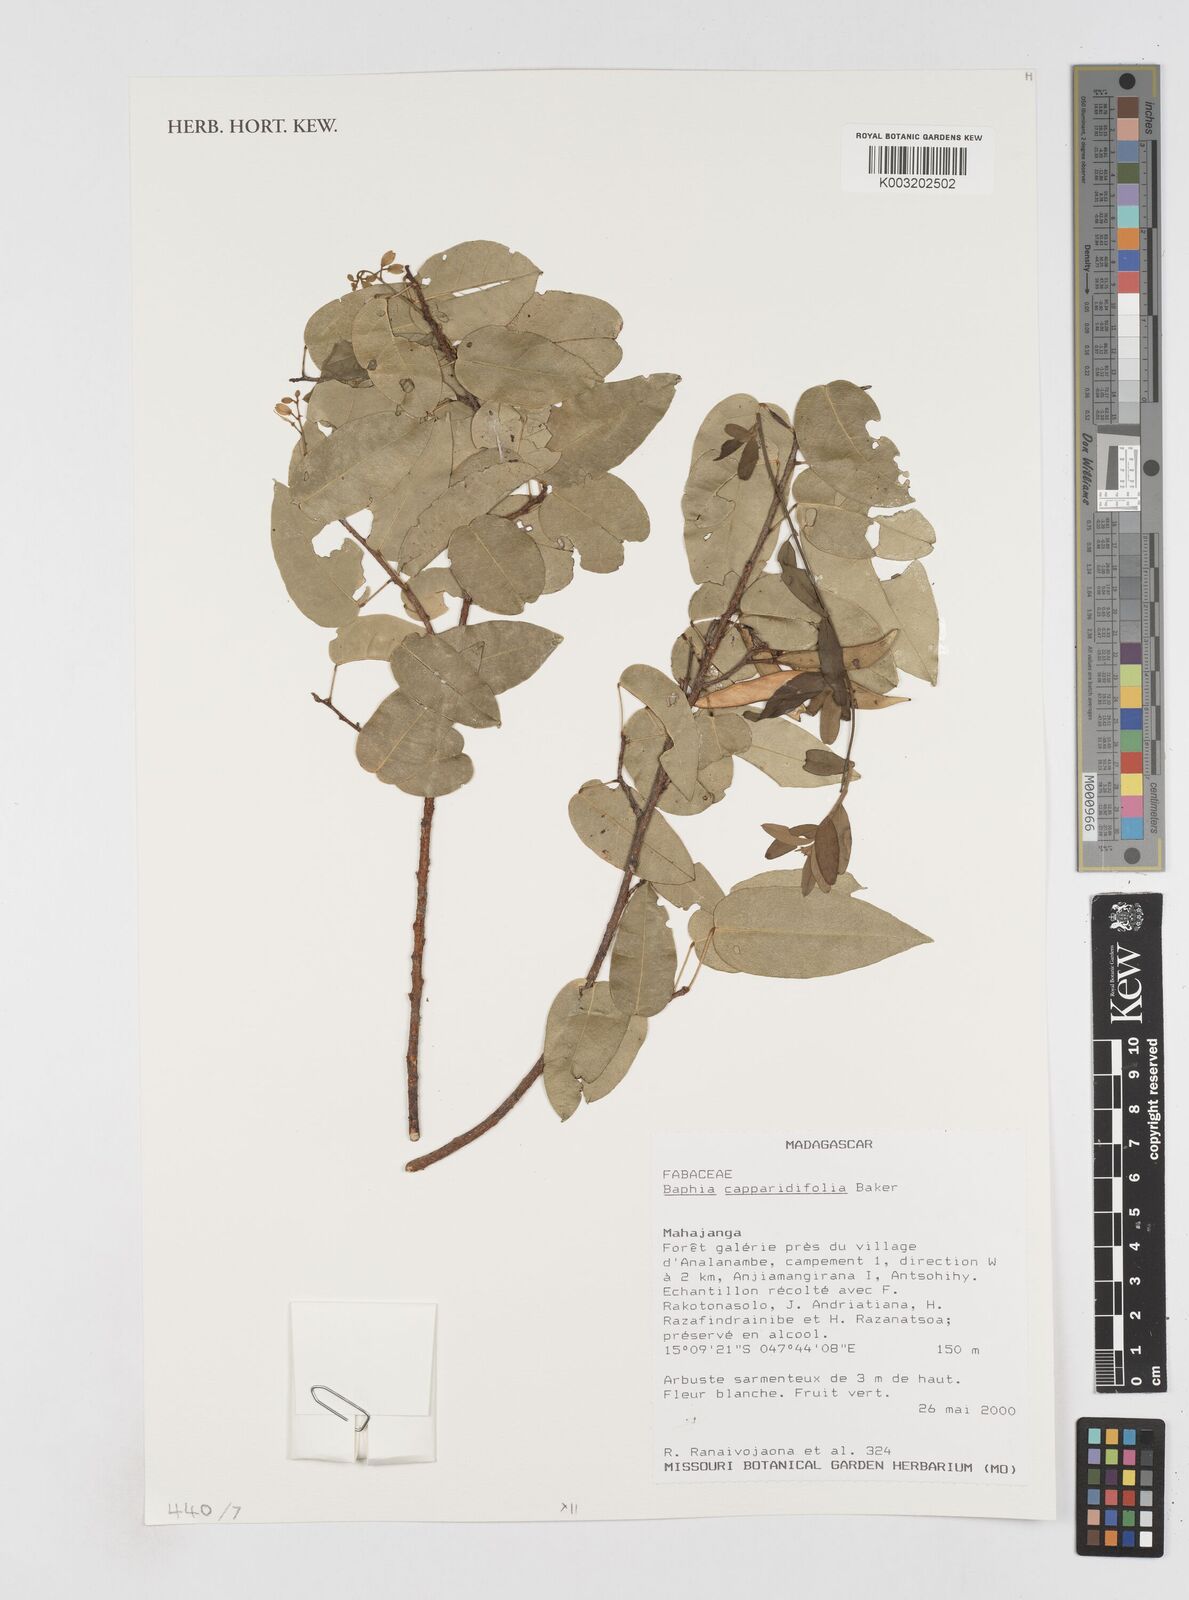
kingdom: Plantae
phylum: Tracheophyta
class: Magnoliopsida
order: Fabales
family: Fabaceae
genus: Baphia
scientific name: Baphia capparidifolia
